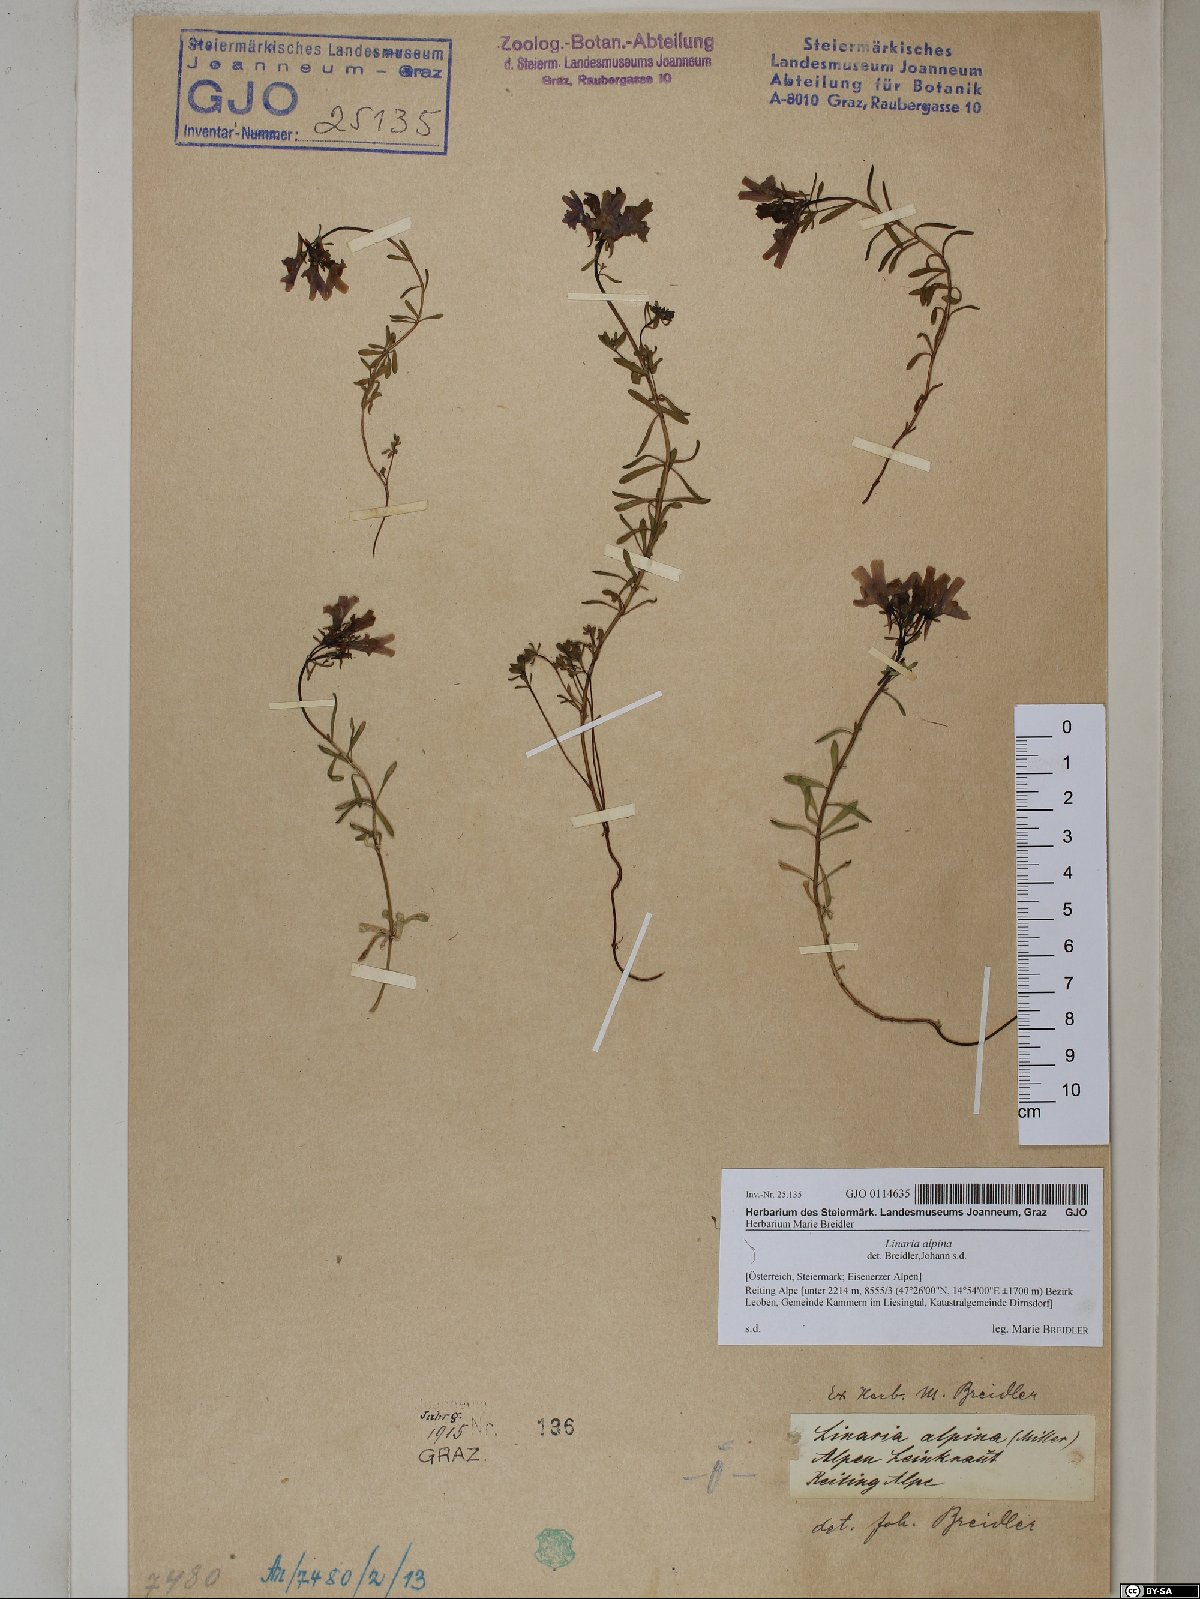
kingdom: Plantae
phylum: Tracheophyta
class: Magnoliopsida
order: Lamiales
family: Plantaginaceae
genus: Linaria
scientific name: Linaria alpina
